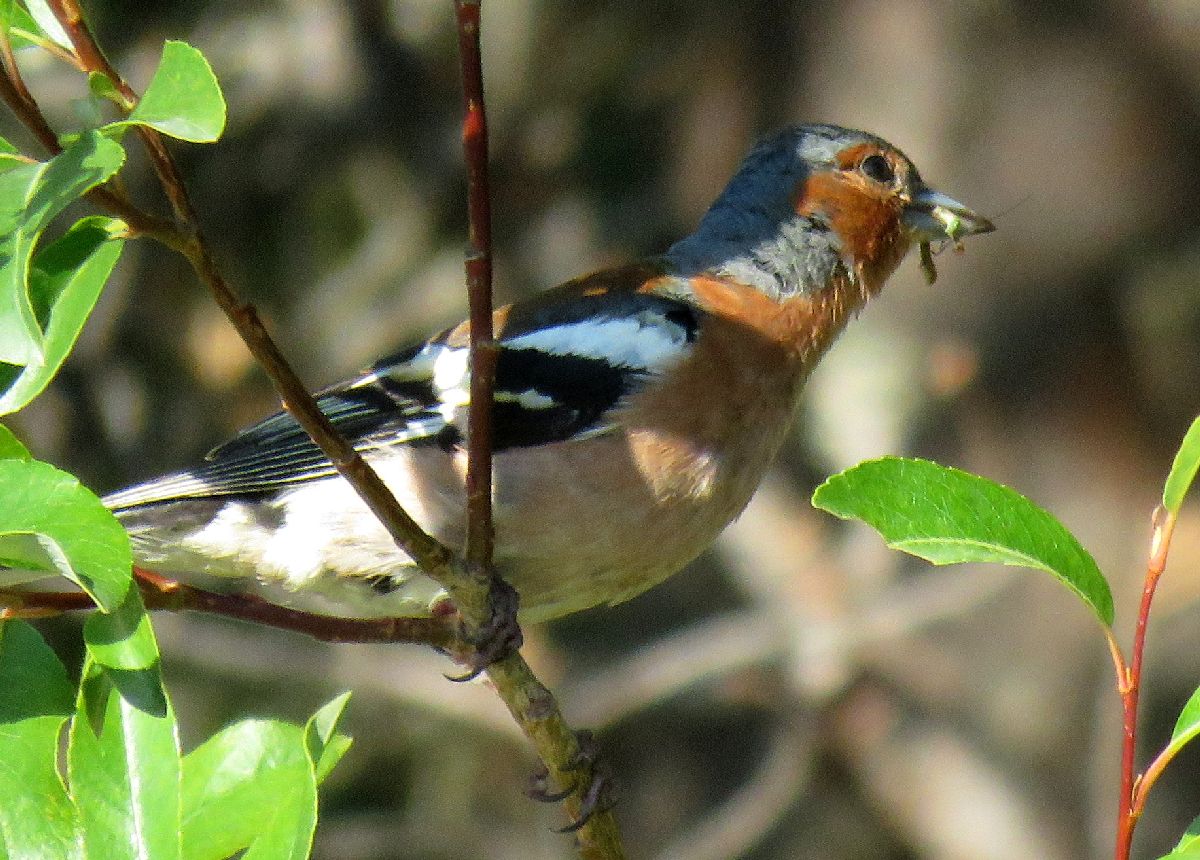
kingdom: Animalia
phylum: Chordata
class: Aves
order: Passeriformes
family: Fringillidae
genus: Fringilla
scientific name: Fringilla coelebs
